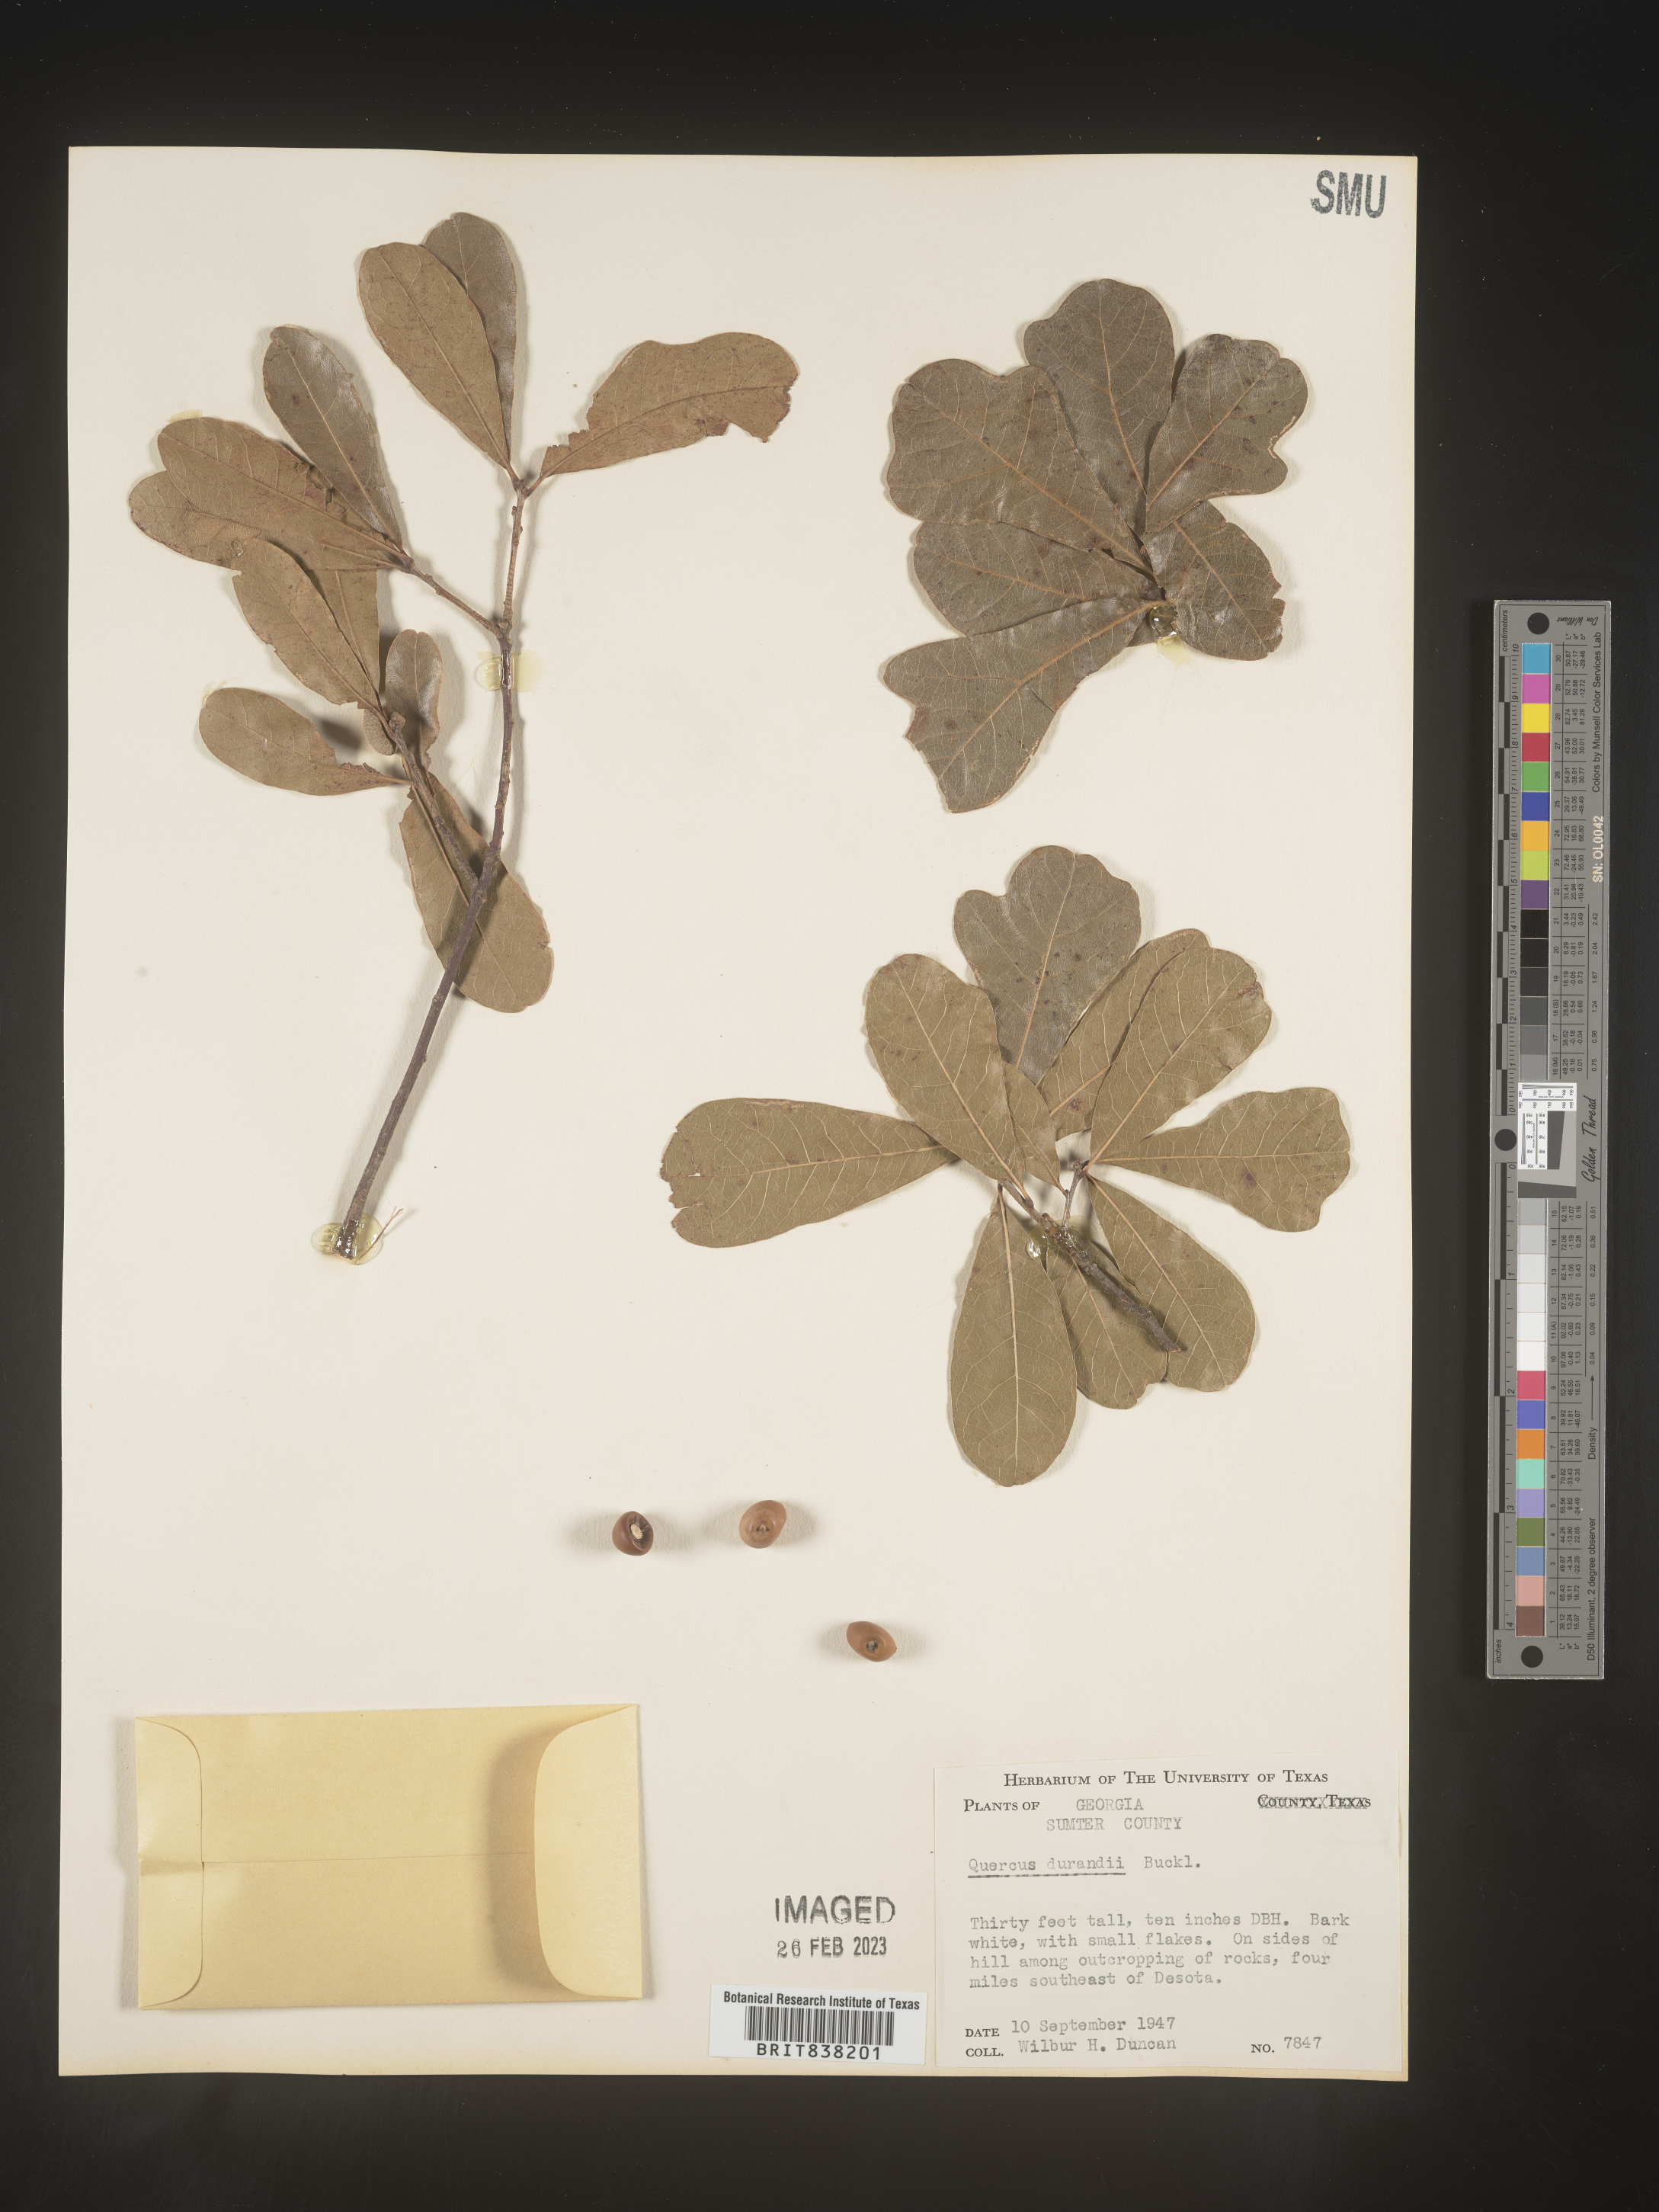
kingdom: Plantae
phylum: Tracheophyta
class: Magnoliopsida
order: Fagales
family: Fagaceae
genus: Quercus
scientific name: Quercus sinuata
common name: Durand oak
